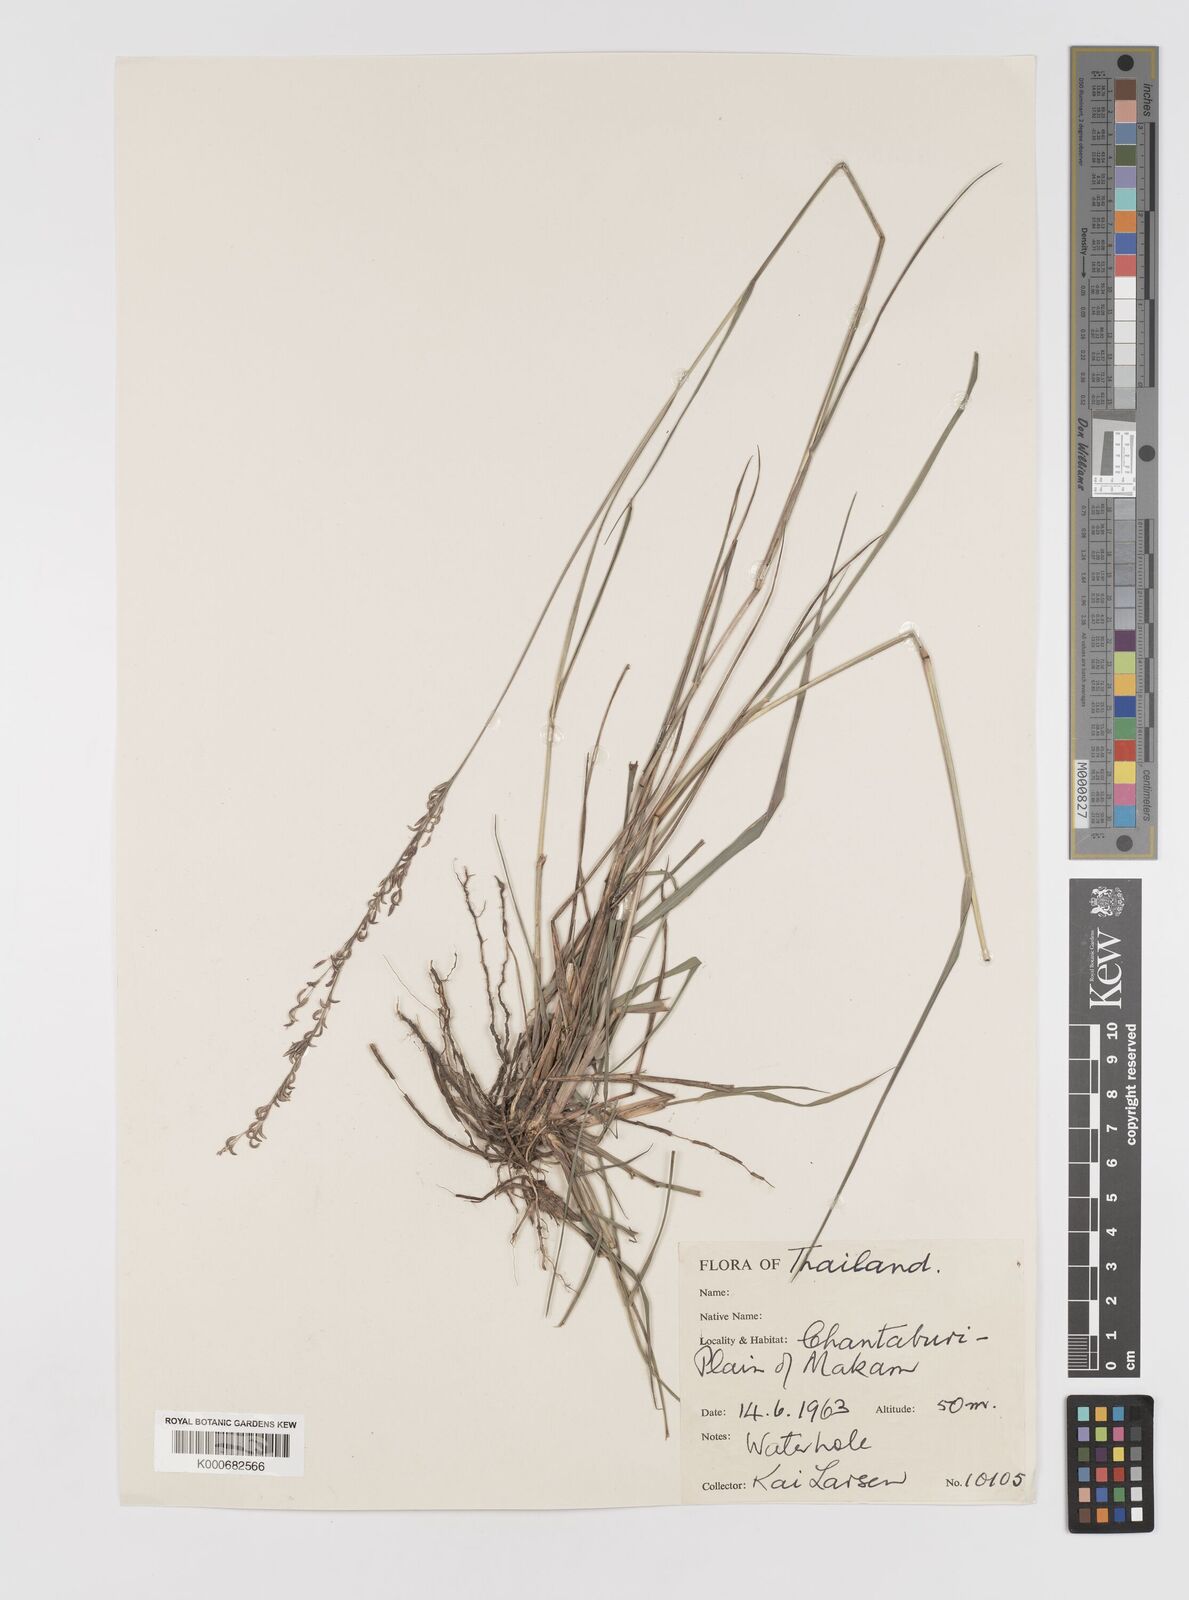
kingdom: Plantae
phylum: Tracheophyta
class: Liliopsida
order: Poales
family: Poaceae
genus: Eragrostis
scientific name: Eragrostis
